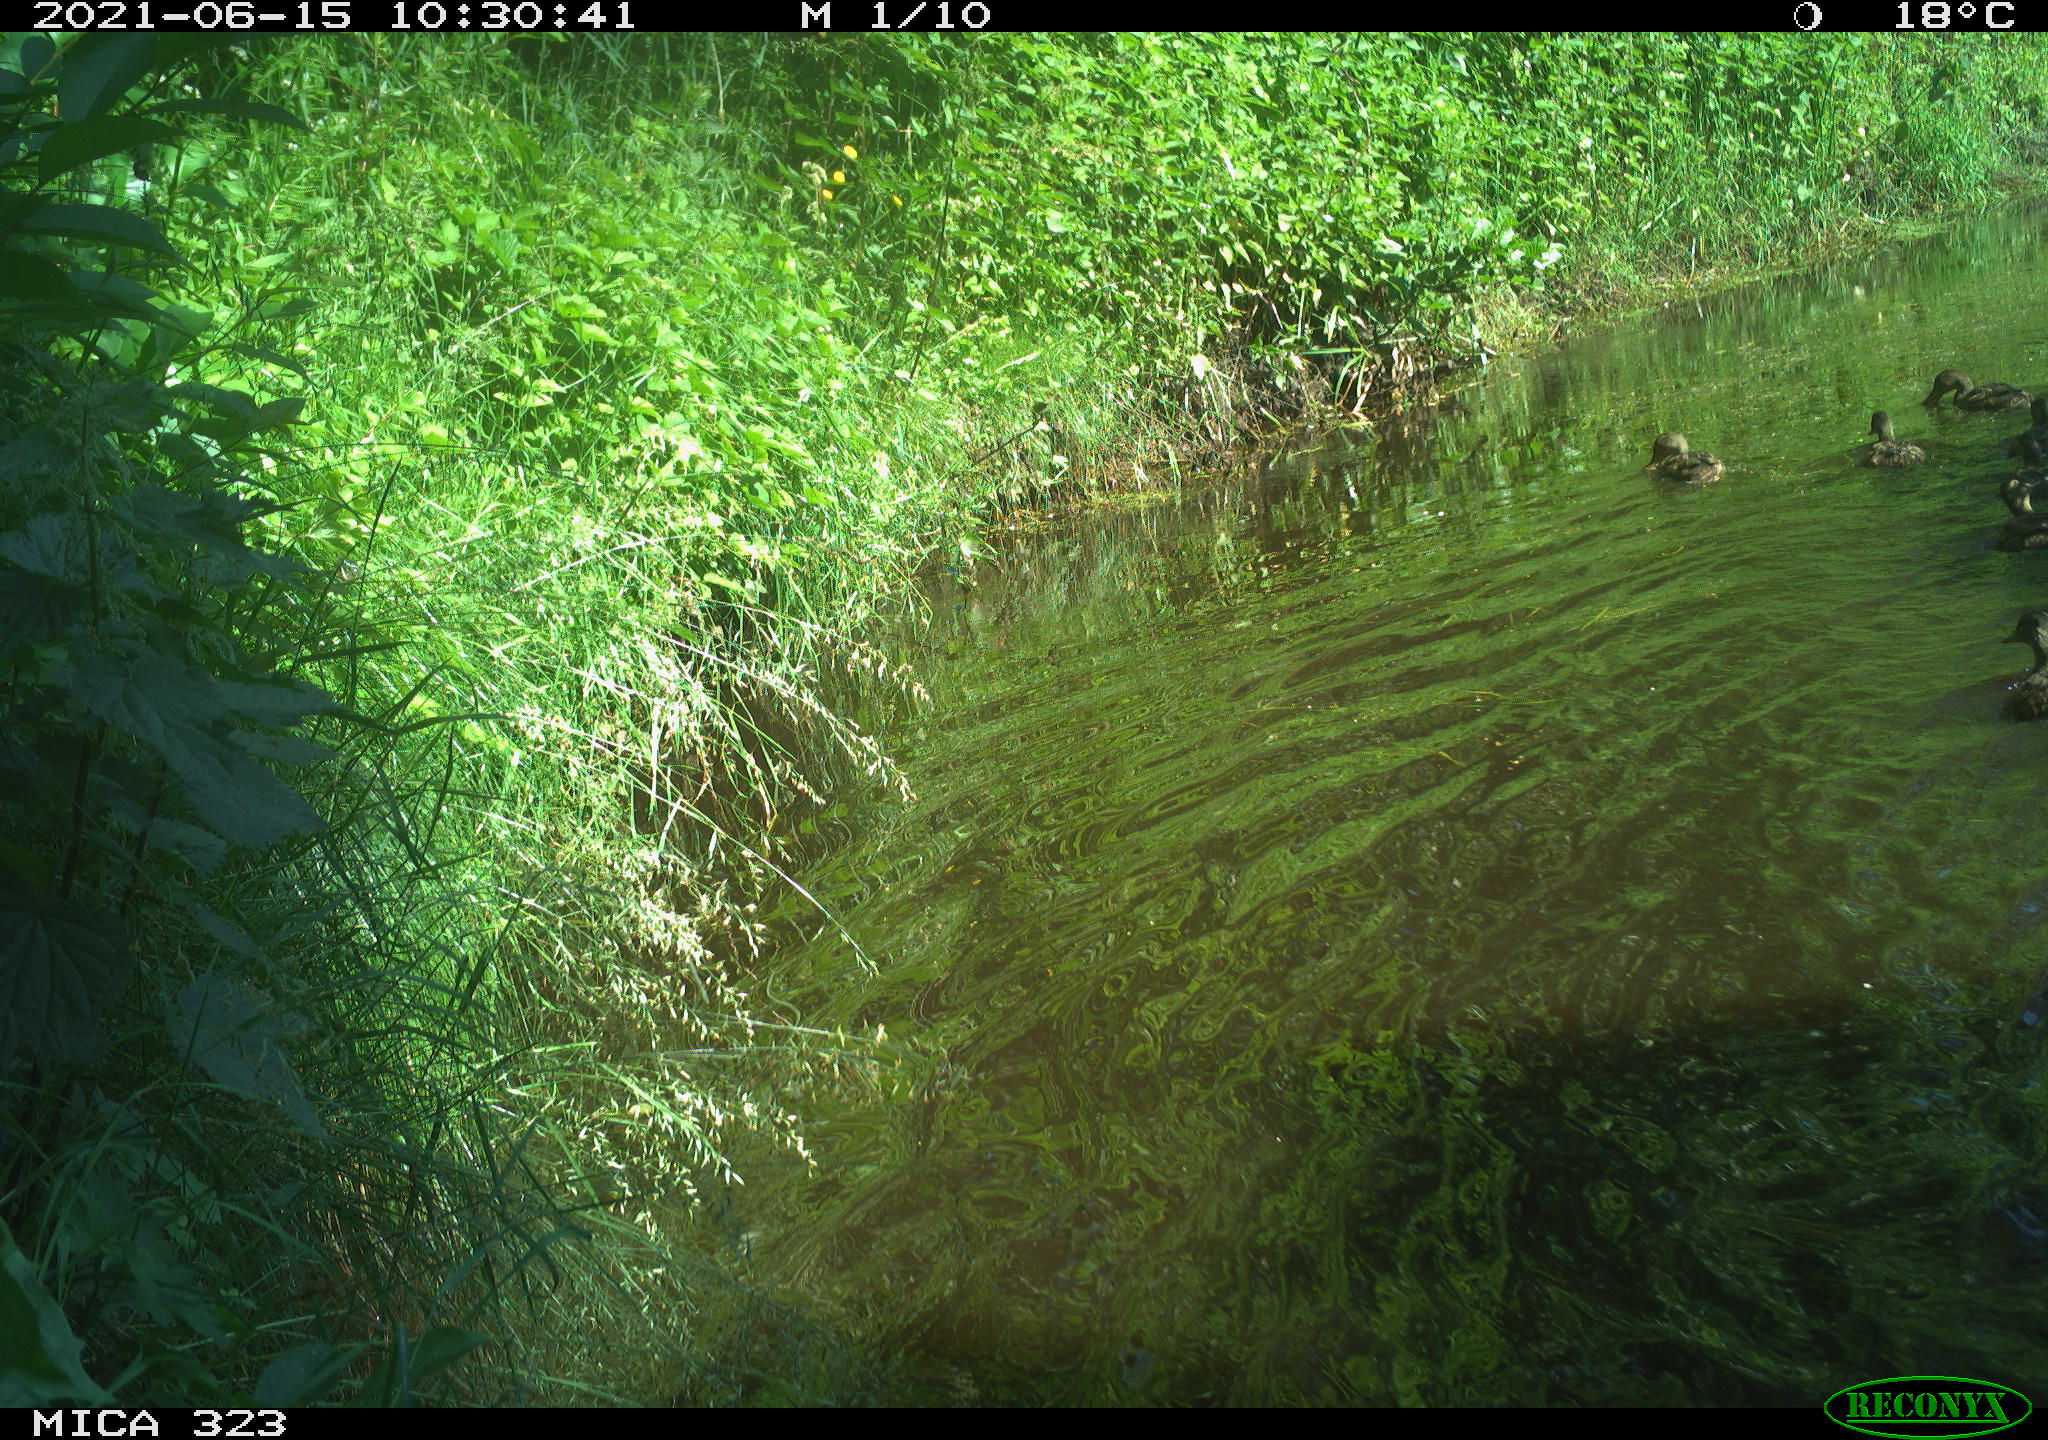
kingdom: Animalia
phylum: Chordata
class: Aves
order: Anseriformes
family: Anatidae
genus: Anas
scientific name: Anas platyrhynchos
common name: Mallard
